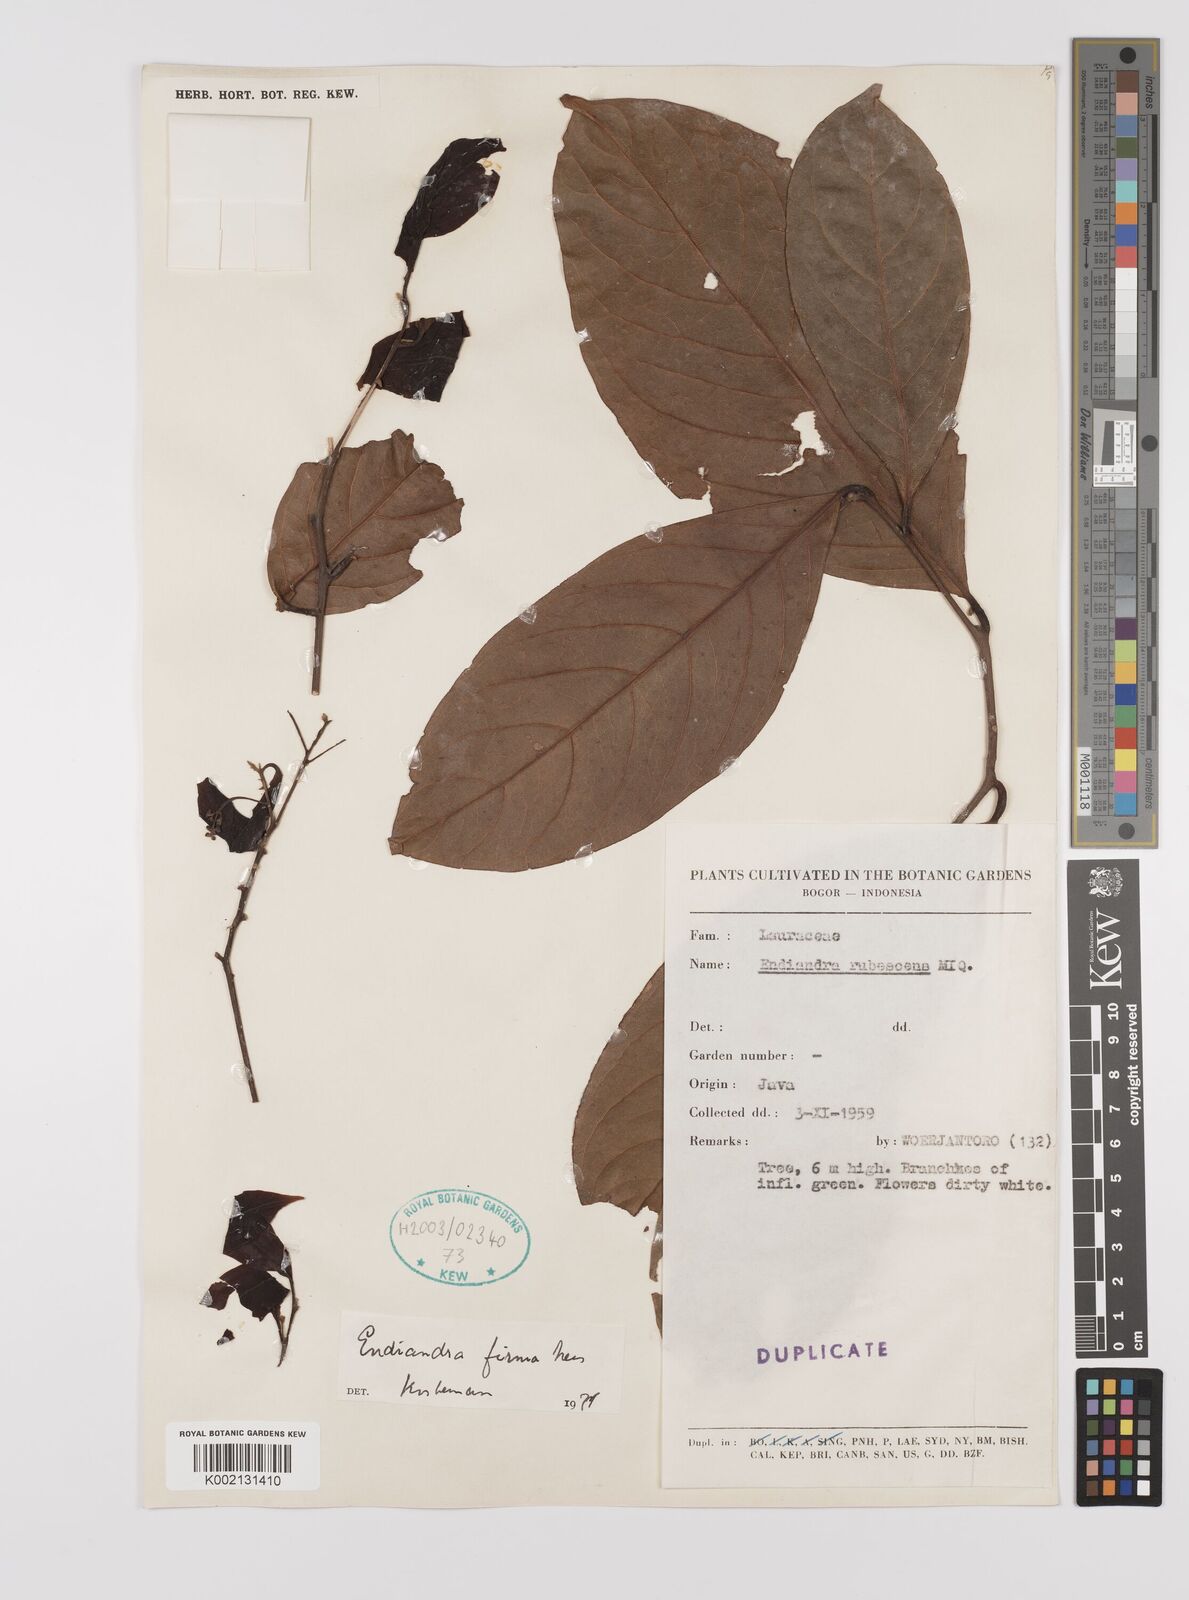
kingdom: Plantae
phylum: Tracheophyta
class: Magnoliopsida
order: Laurales
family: Lauraceae
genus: Endiandra
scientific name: Endiandra firma
